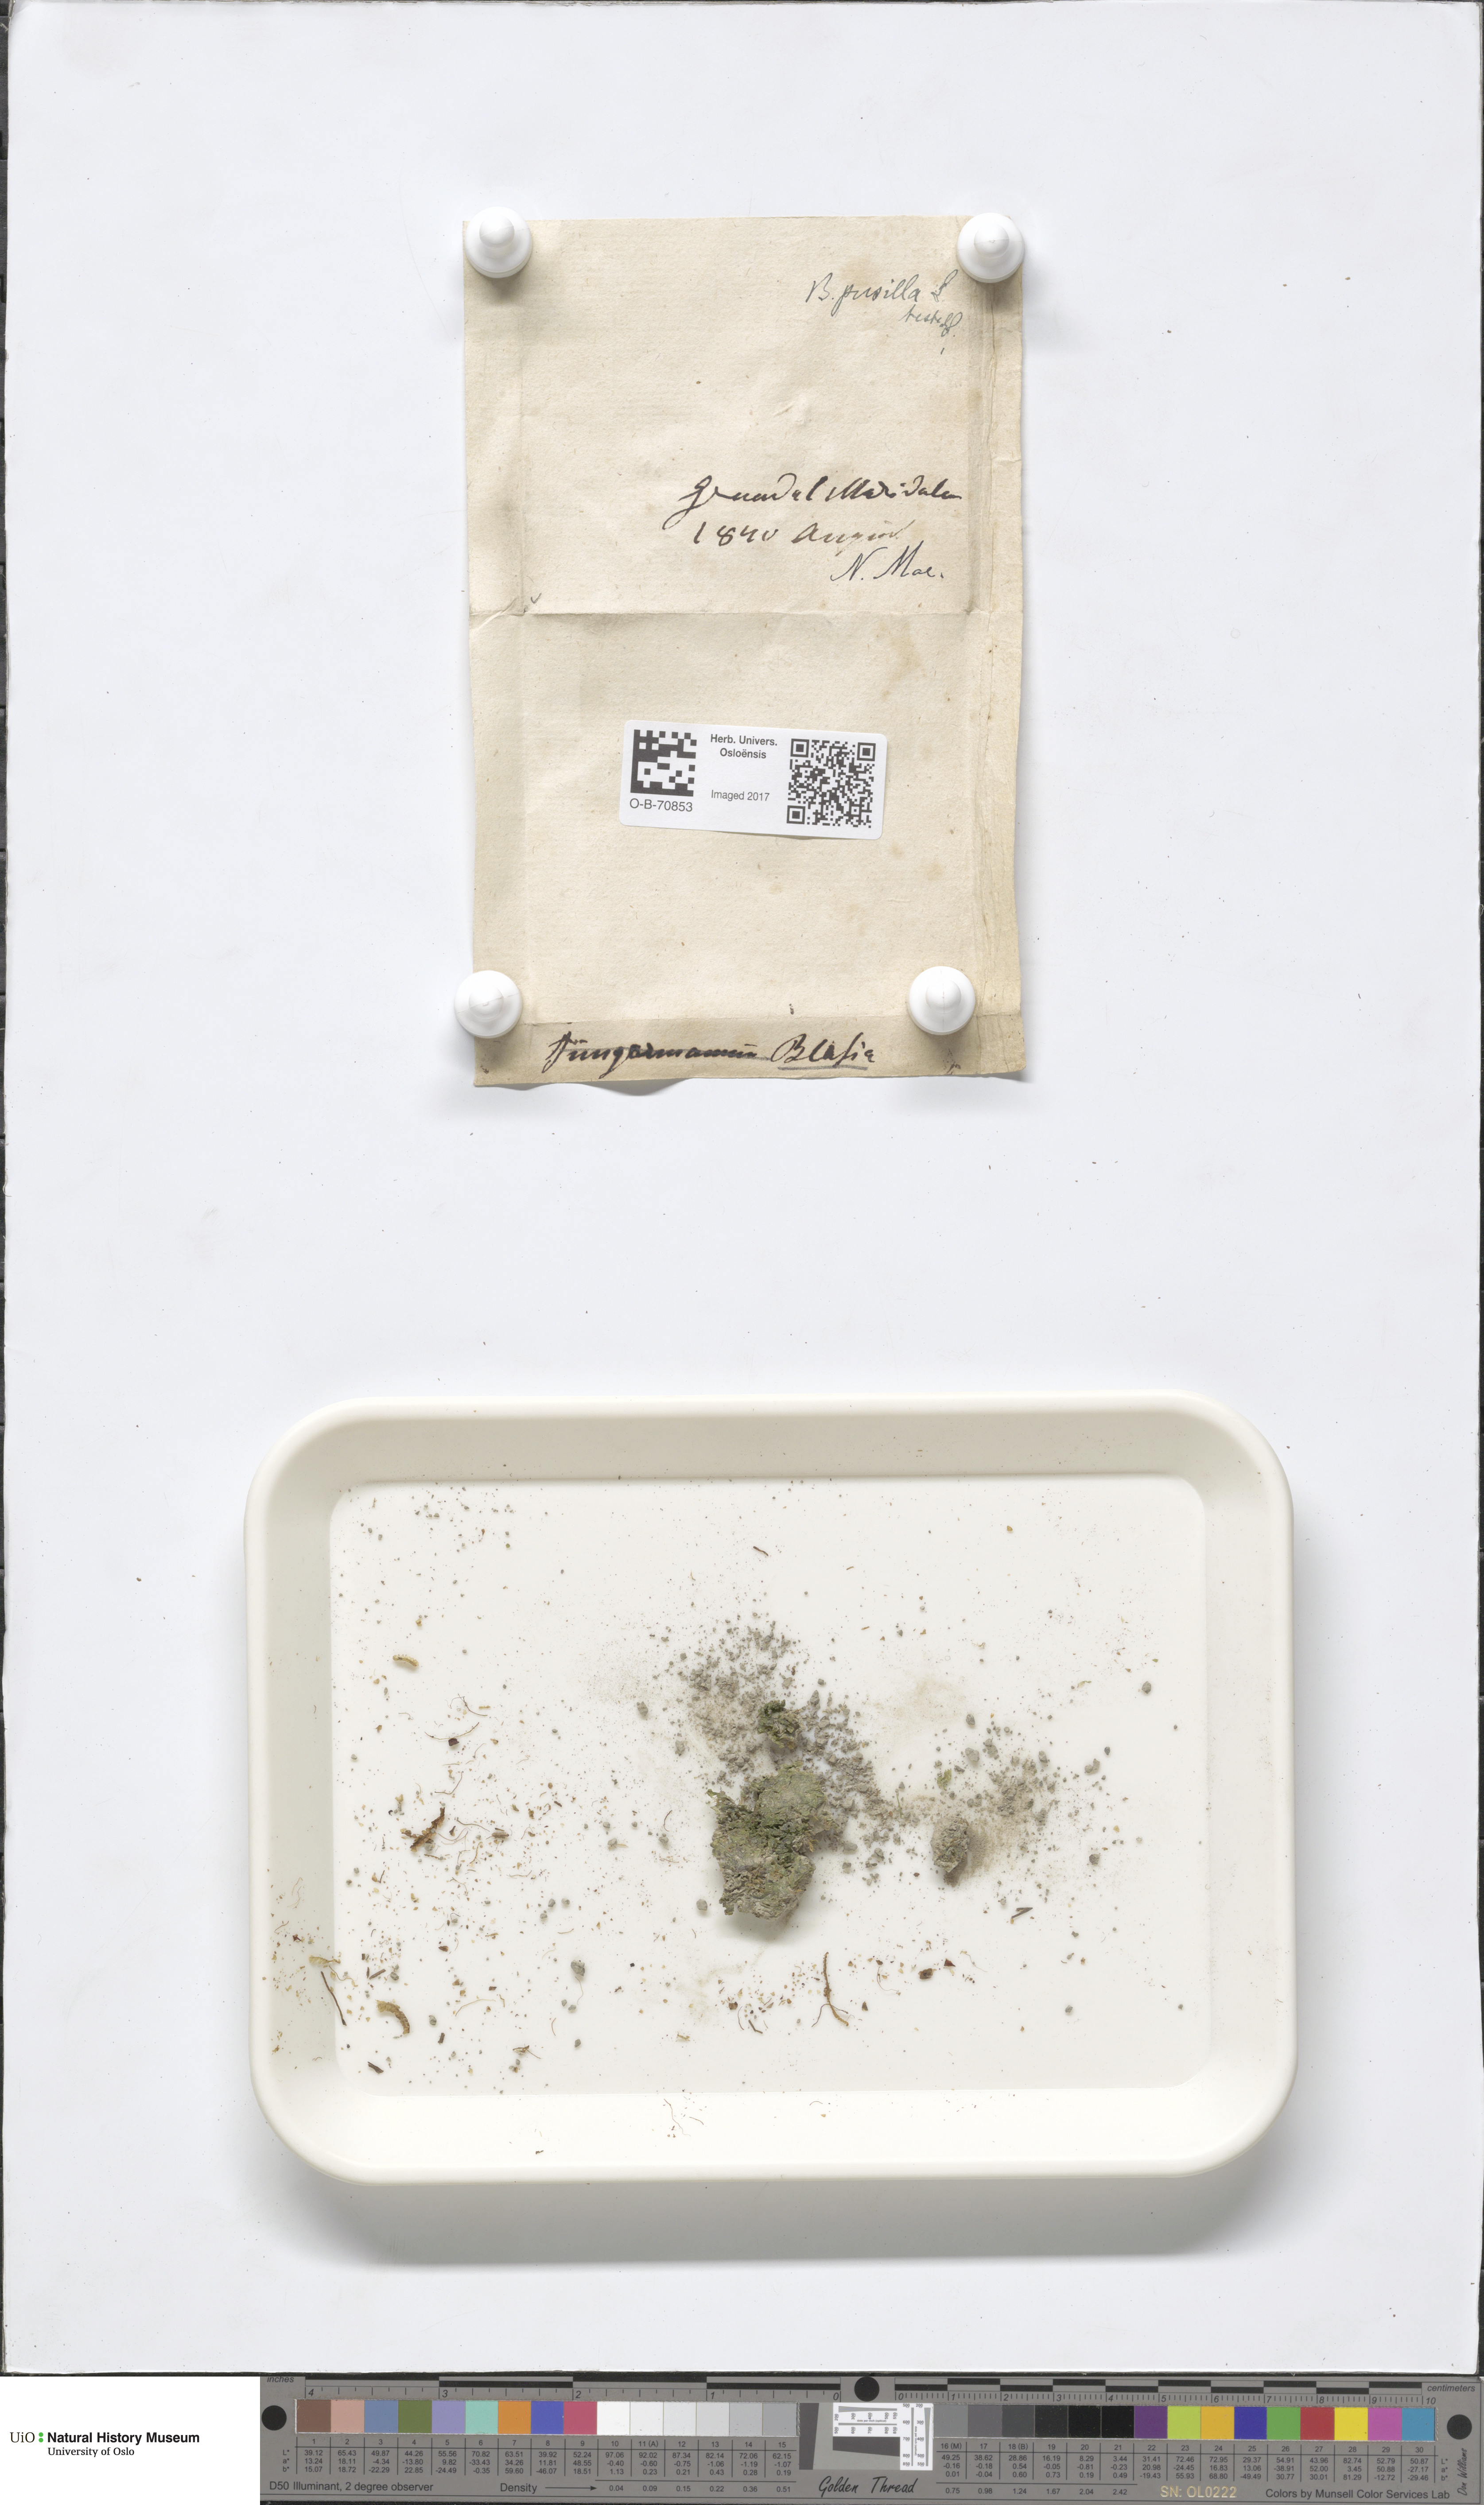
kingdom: Plantae
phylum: Marchantiophyta
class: Marchantiopsida
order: Blasiales
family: Blasiaceae
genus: Blasia
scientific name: Blasia pusilla
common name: Common kettlewort
